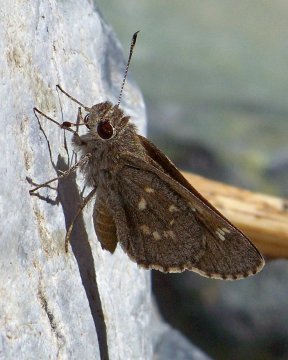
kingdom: Animalia
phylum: Arthropoda
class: Insecta
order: Lepidoptera
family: Hesperiidae
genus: Atrytonopsis
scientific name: Atrytonopsis ovinia
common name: Sheep Skipper
